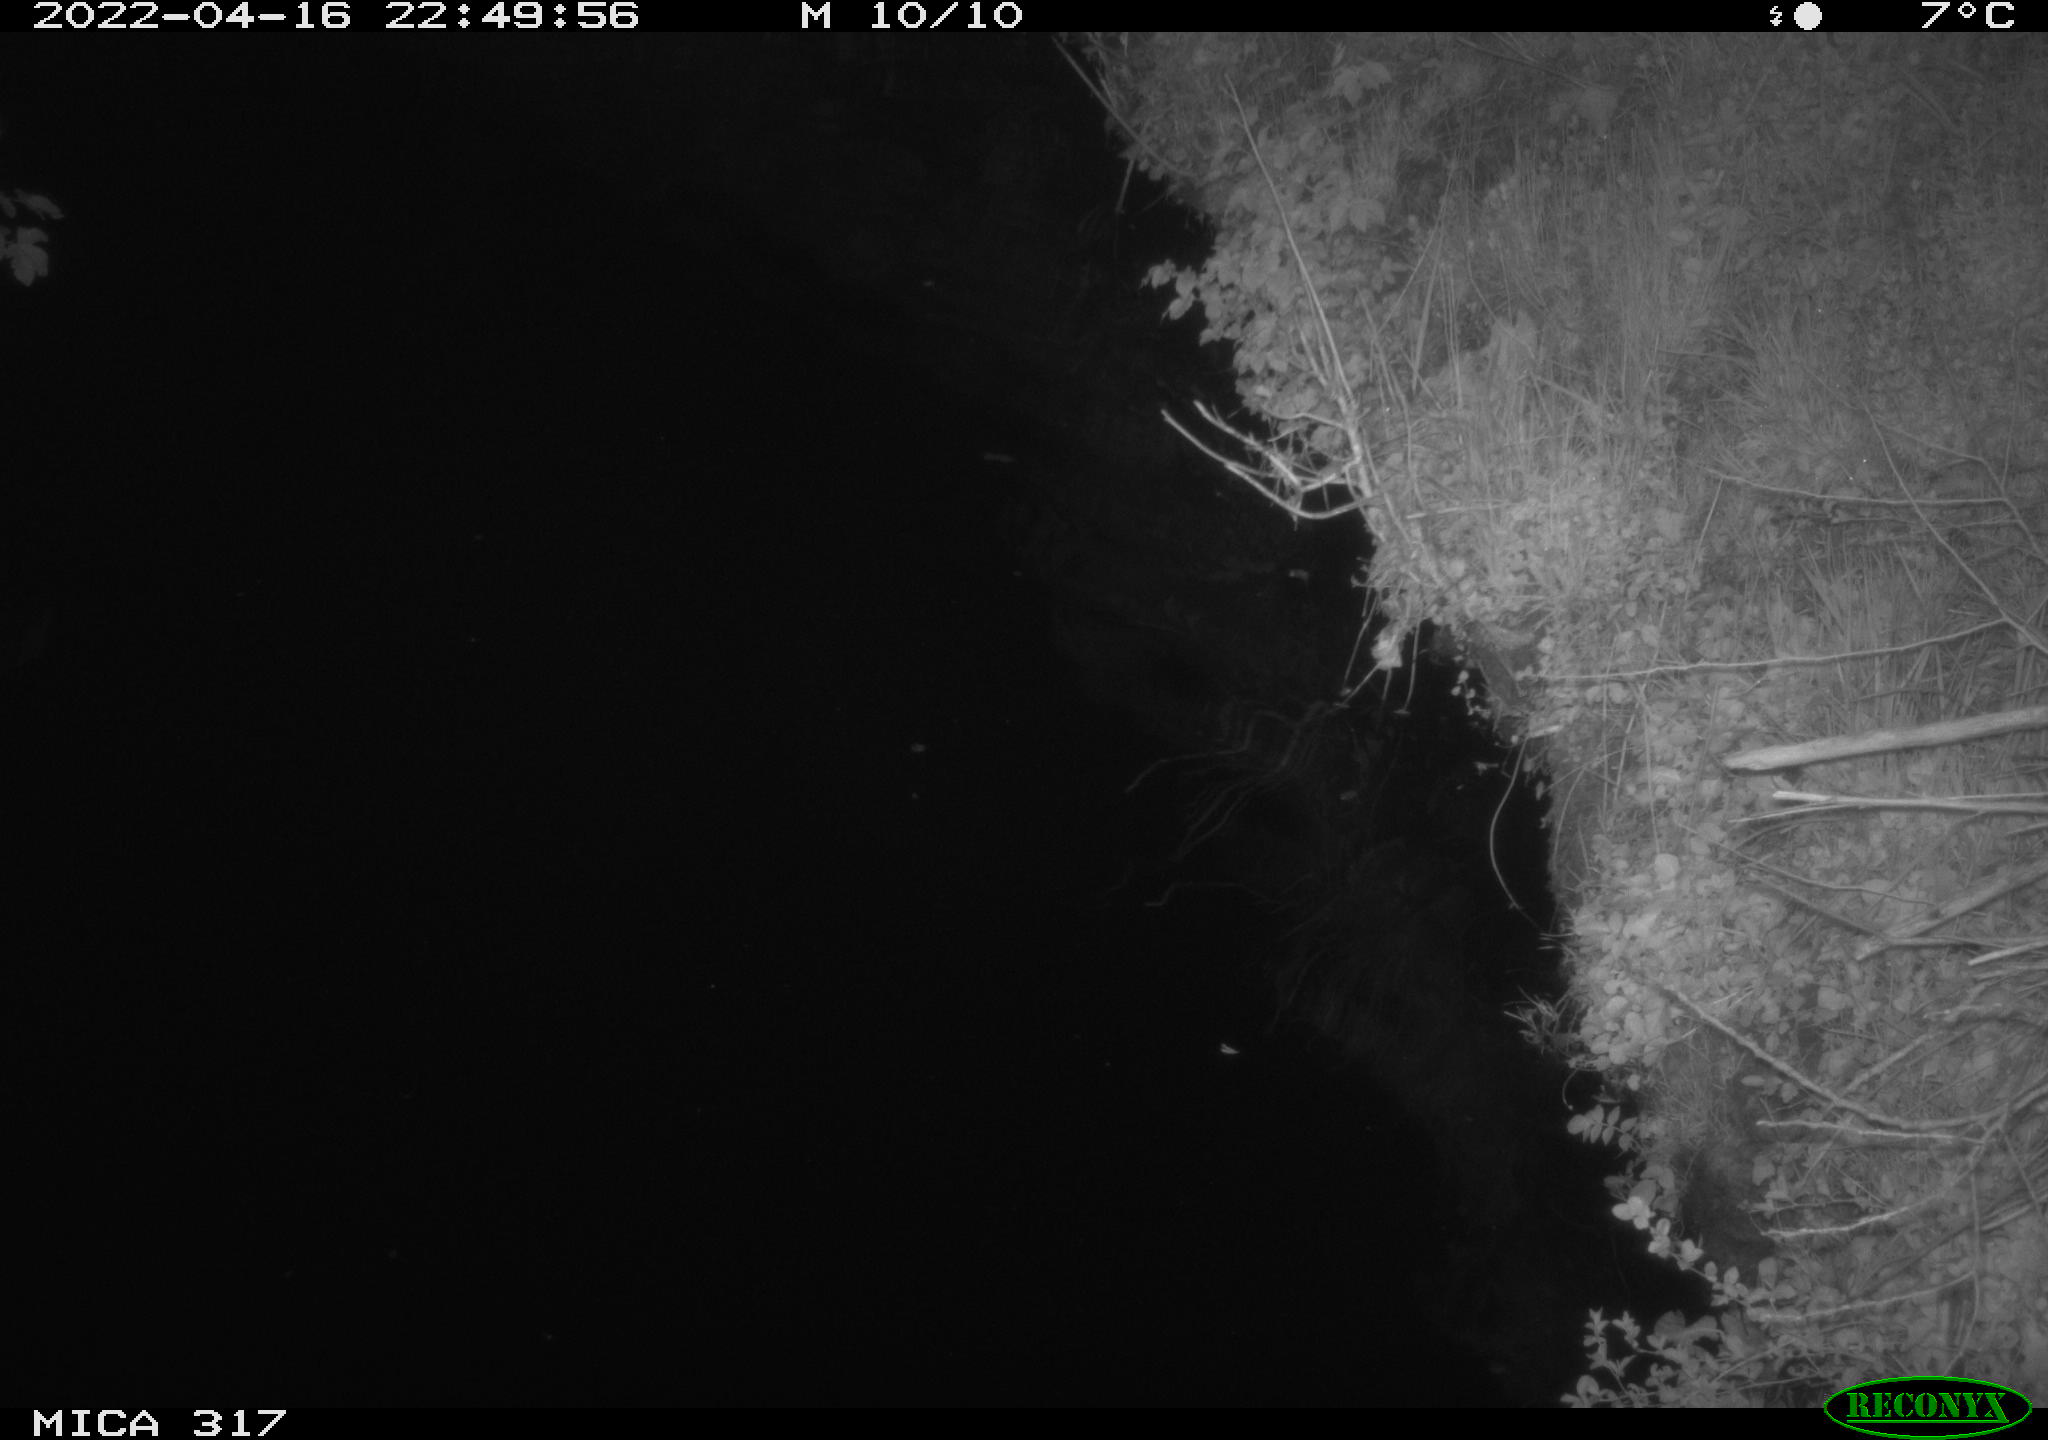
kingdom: Animalia
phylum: Chordata
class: Aves
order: Anseriformes
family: Anatidae
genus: Anas
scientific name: Anas platyrhynchos
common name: Mallard
